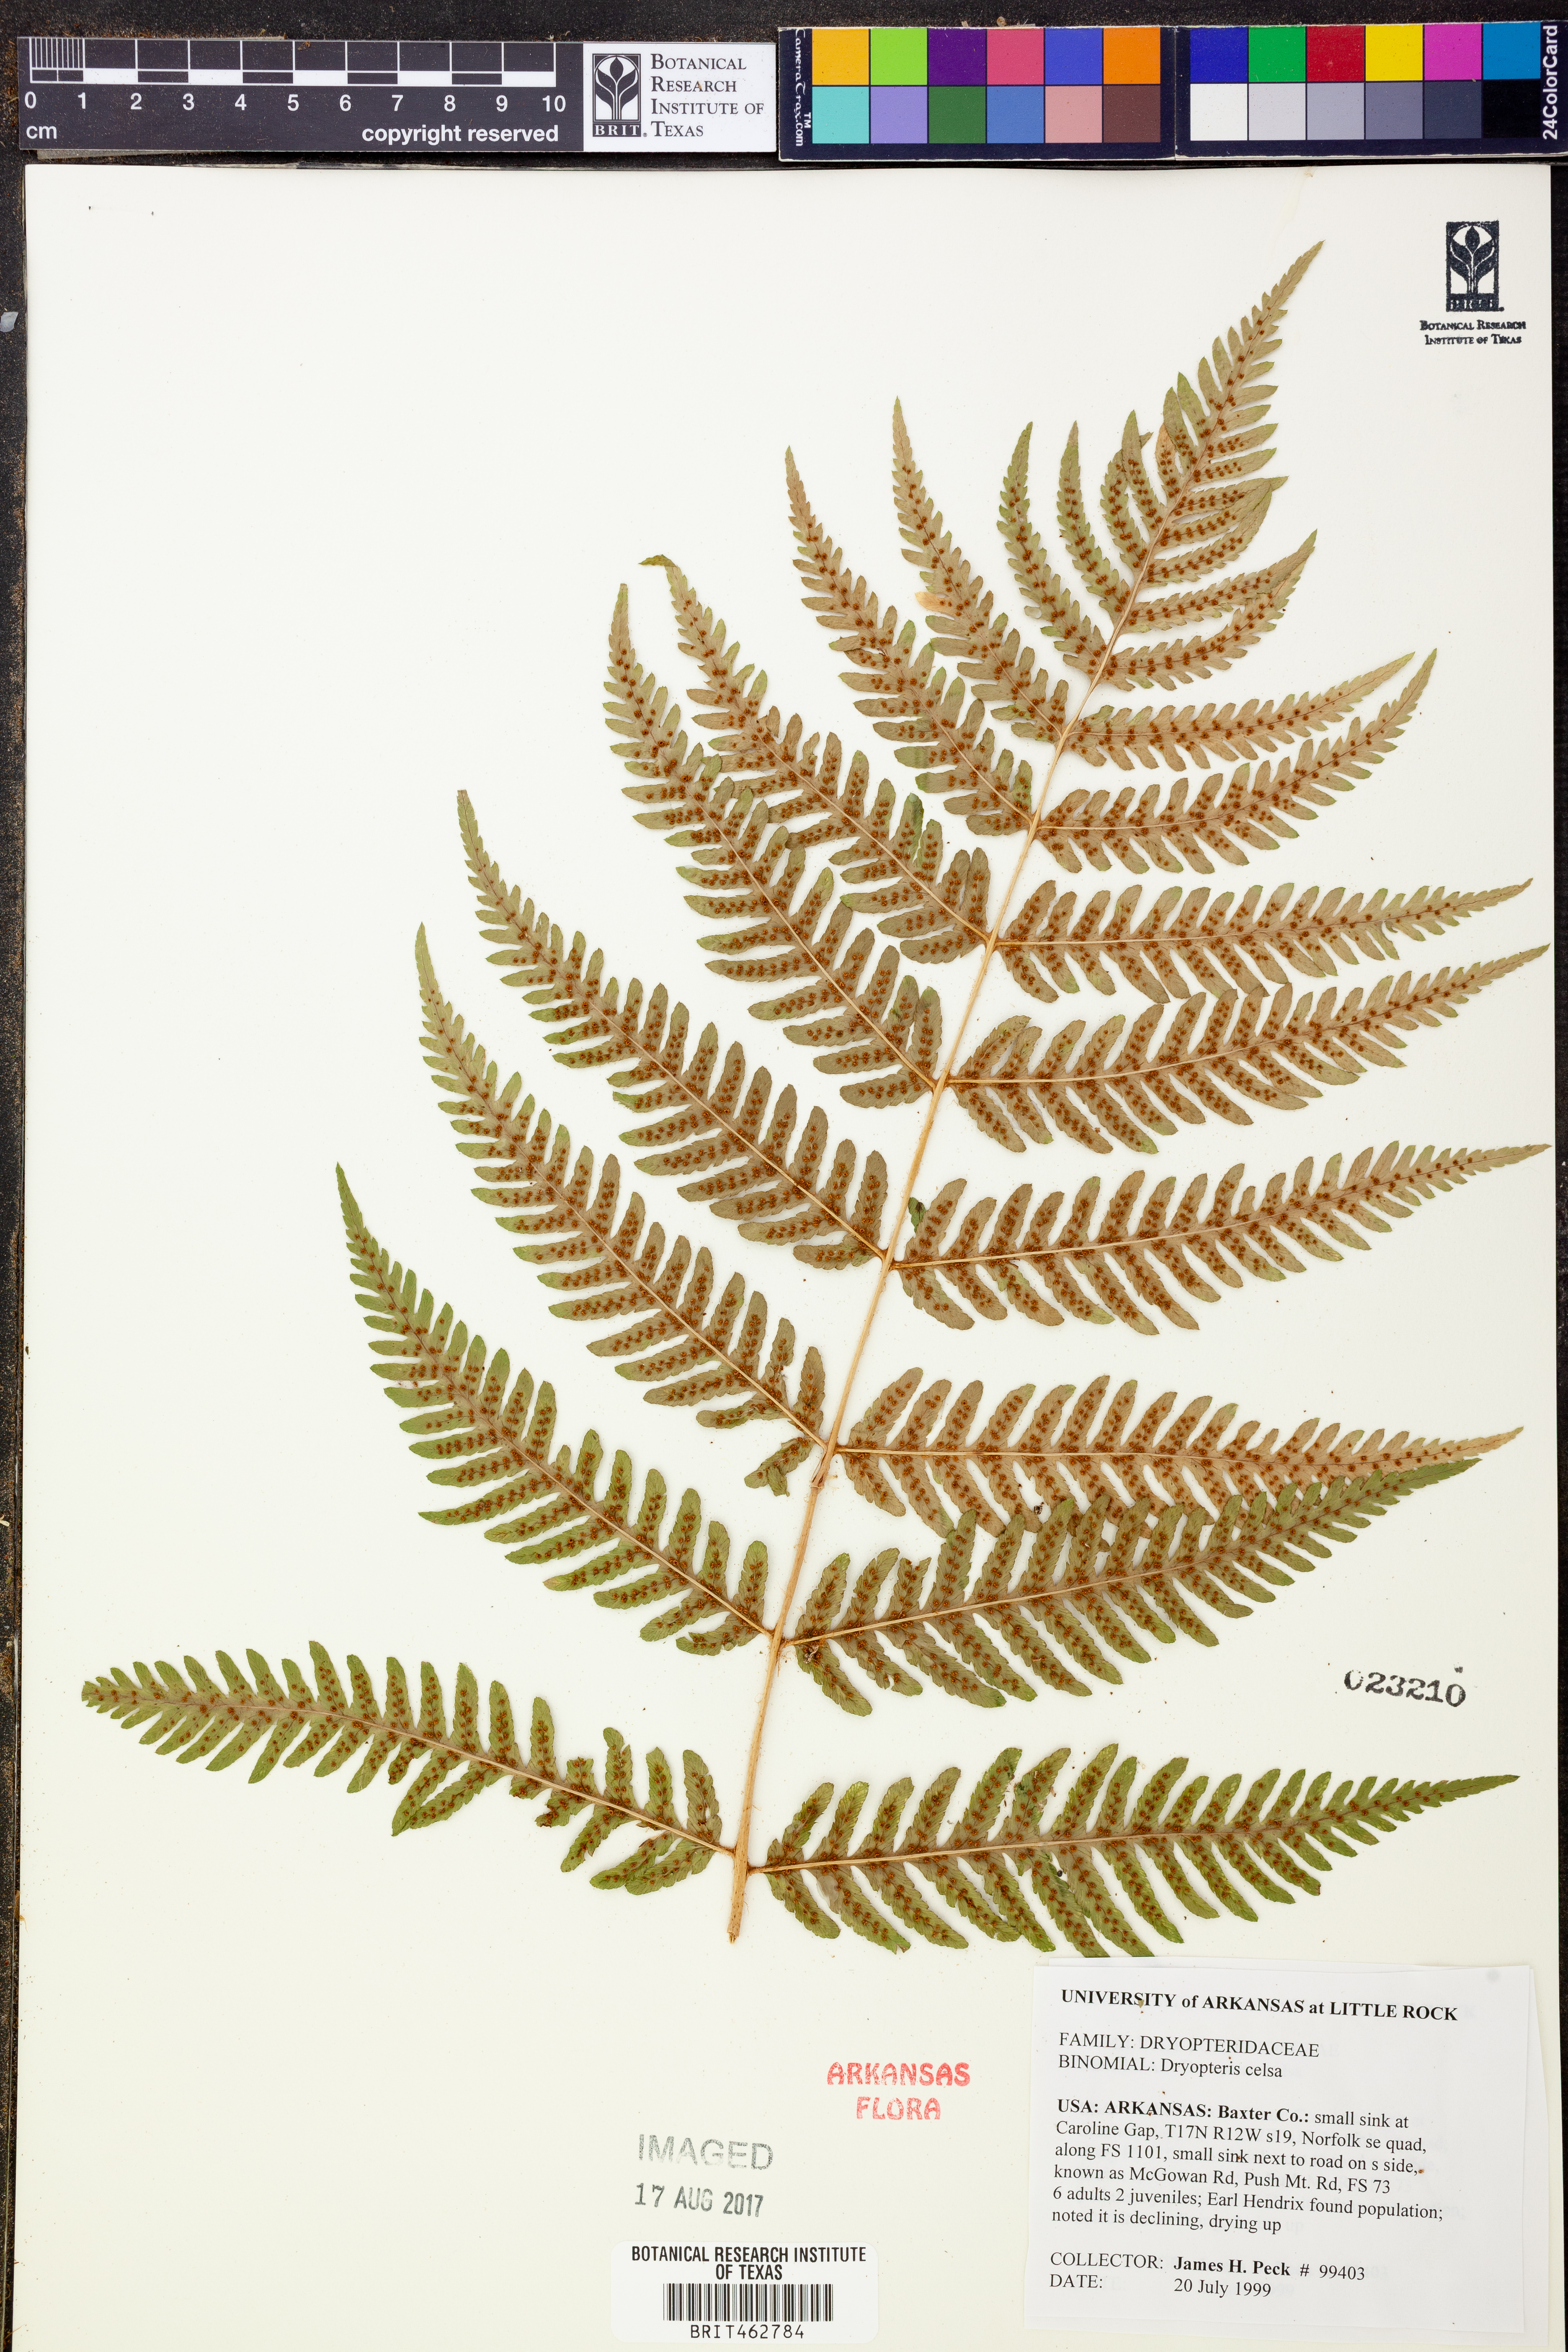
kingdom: Plantae
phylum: Tracheophyta
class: Polypodiopsida
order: Polypodiales
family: Dryopteridaceae
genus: Dryopteris
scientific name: Dryopteris celsa
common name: Log fern
